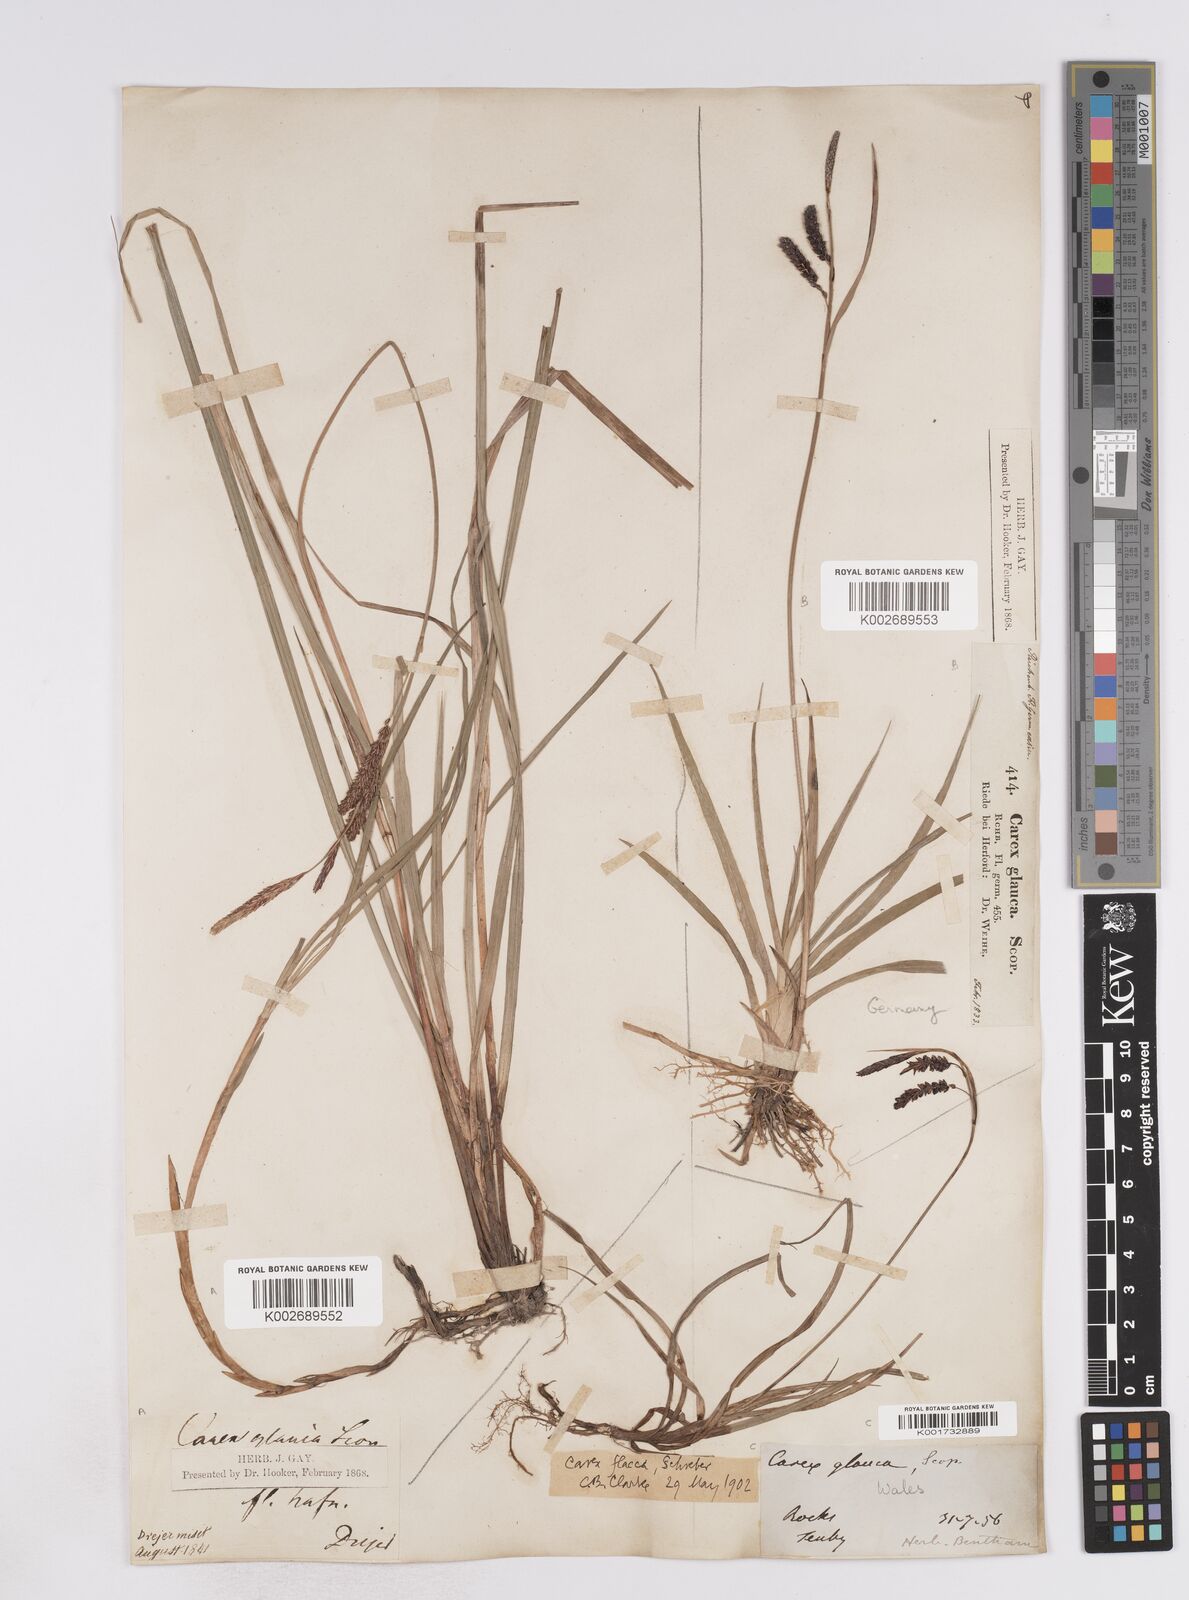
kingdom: Plantae
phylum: Tracheophyta
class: Liliopsida
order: Poales
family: Cyperaceae
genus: Carex
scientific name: Carex flacca
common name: Glaucous sedge
